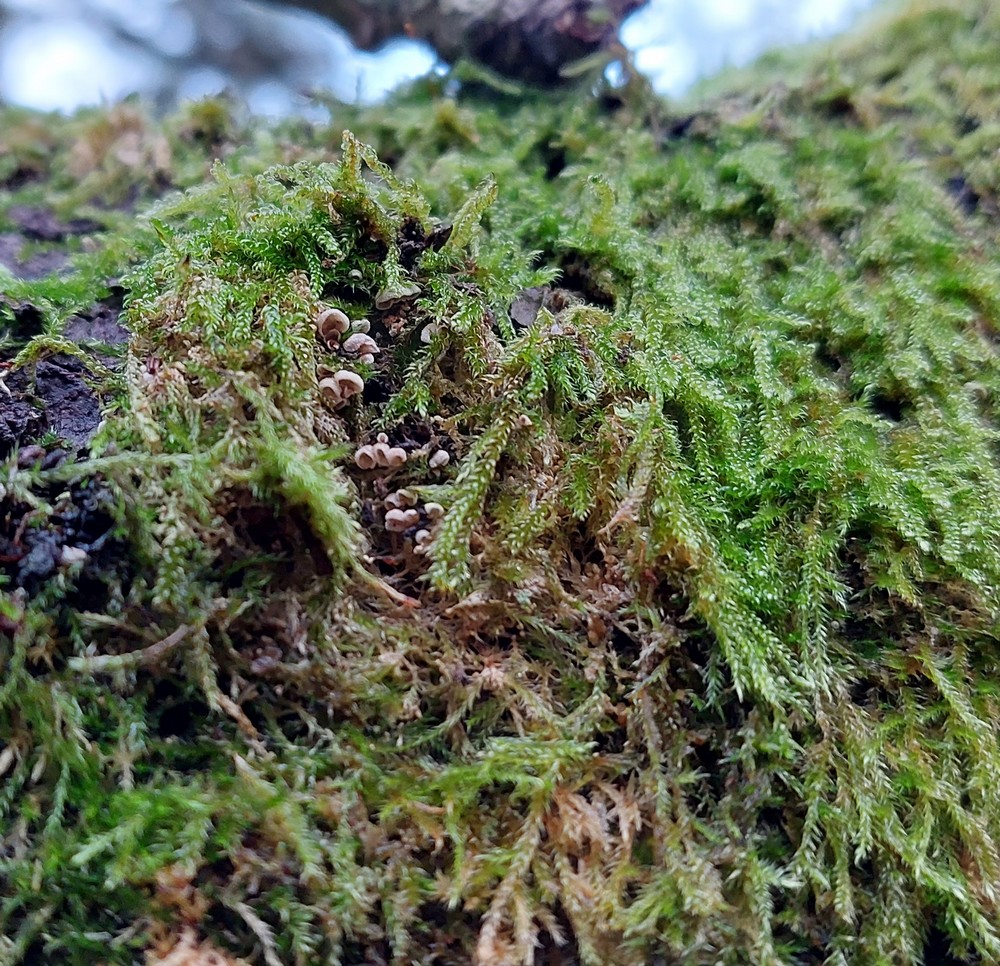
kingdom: Fungi
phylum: Basidiomycota
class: Agaricomycetes
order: Agaricales
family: Chromocyphellaceae
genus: Chromocyphella
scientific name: Chromocyphella muscicola
